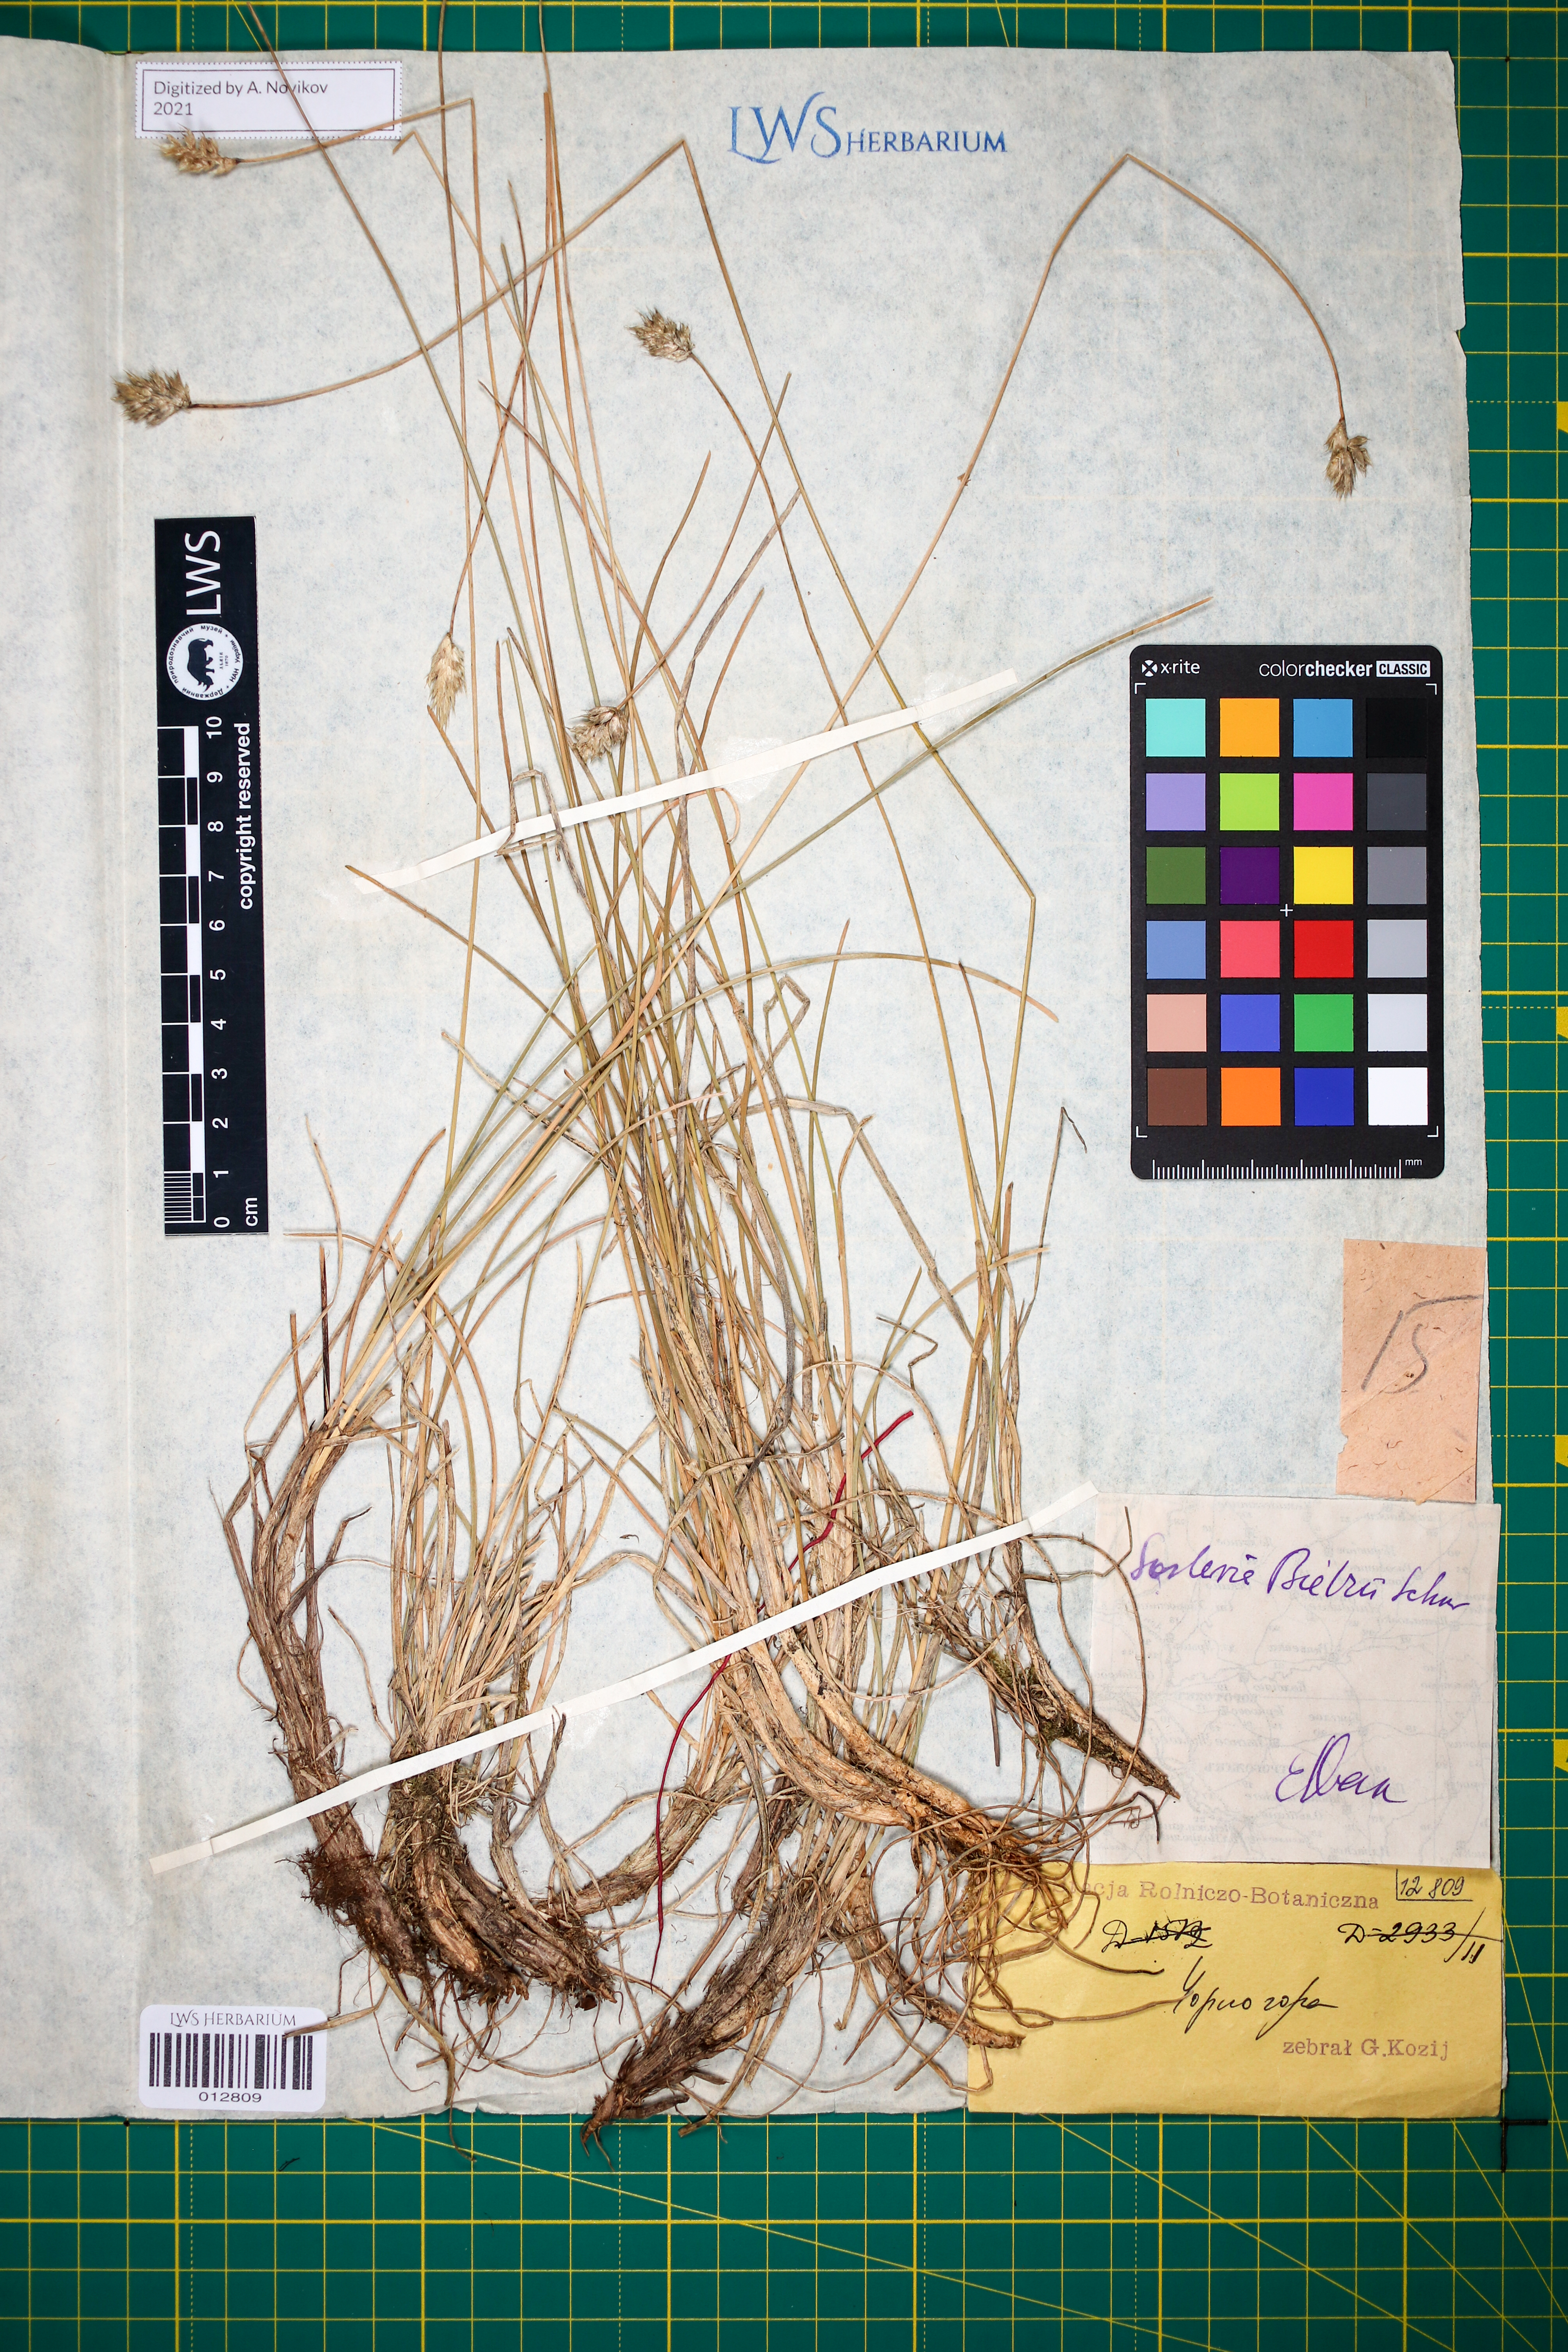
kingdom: Plantae
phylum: Tracheophyta
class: Liliopsida
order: Poales
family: Poaceae
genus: Sesleria
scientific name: Sesleria bielzii
